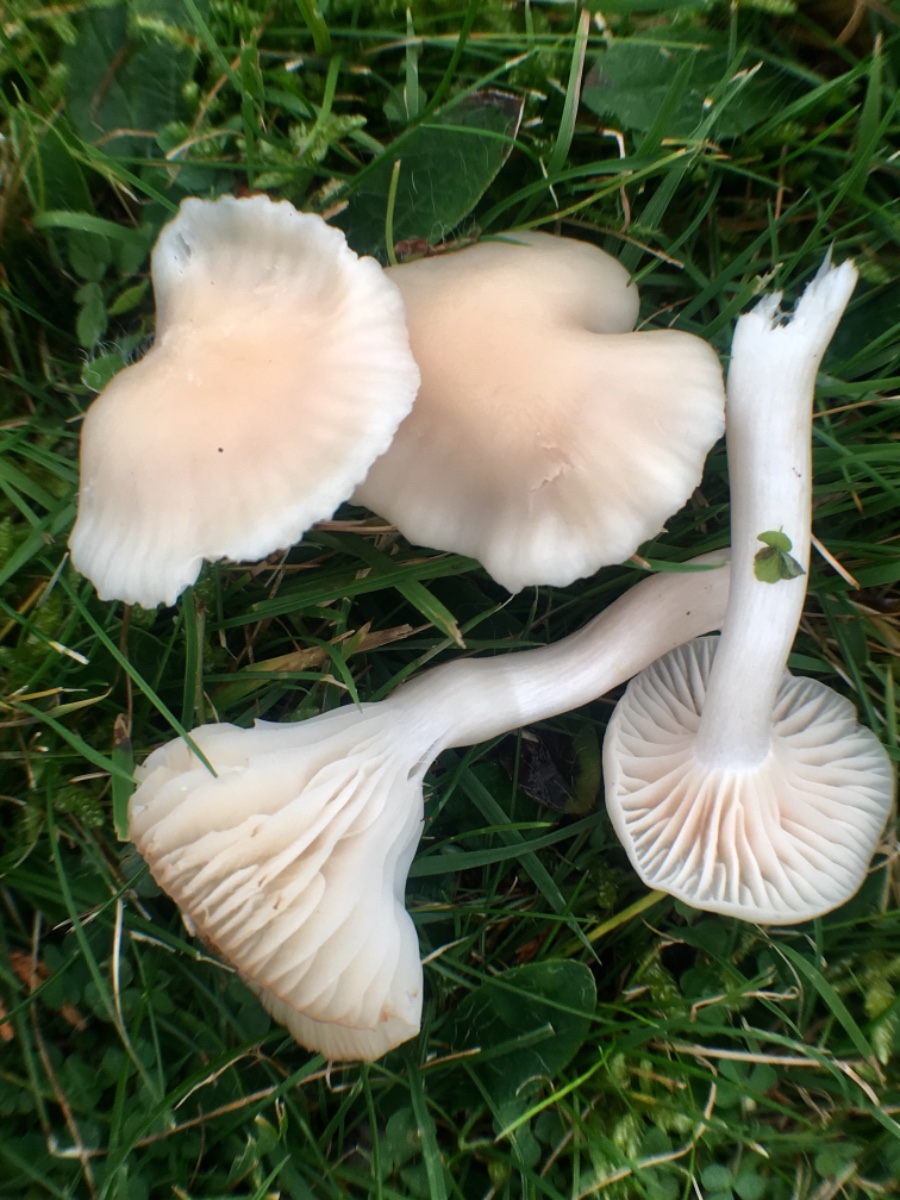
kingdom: Fungi
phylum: Basidiomycota
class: Agaricomycetes
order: Agaricales
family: Hygrophoraceae
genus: Cuphophyllus
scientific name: Cuphophyllus virgineus
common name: snehvid vokshat
